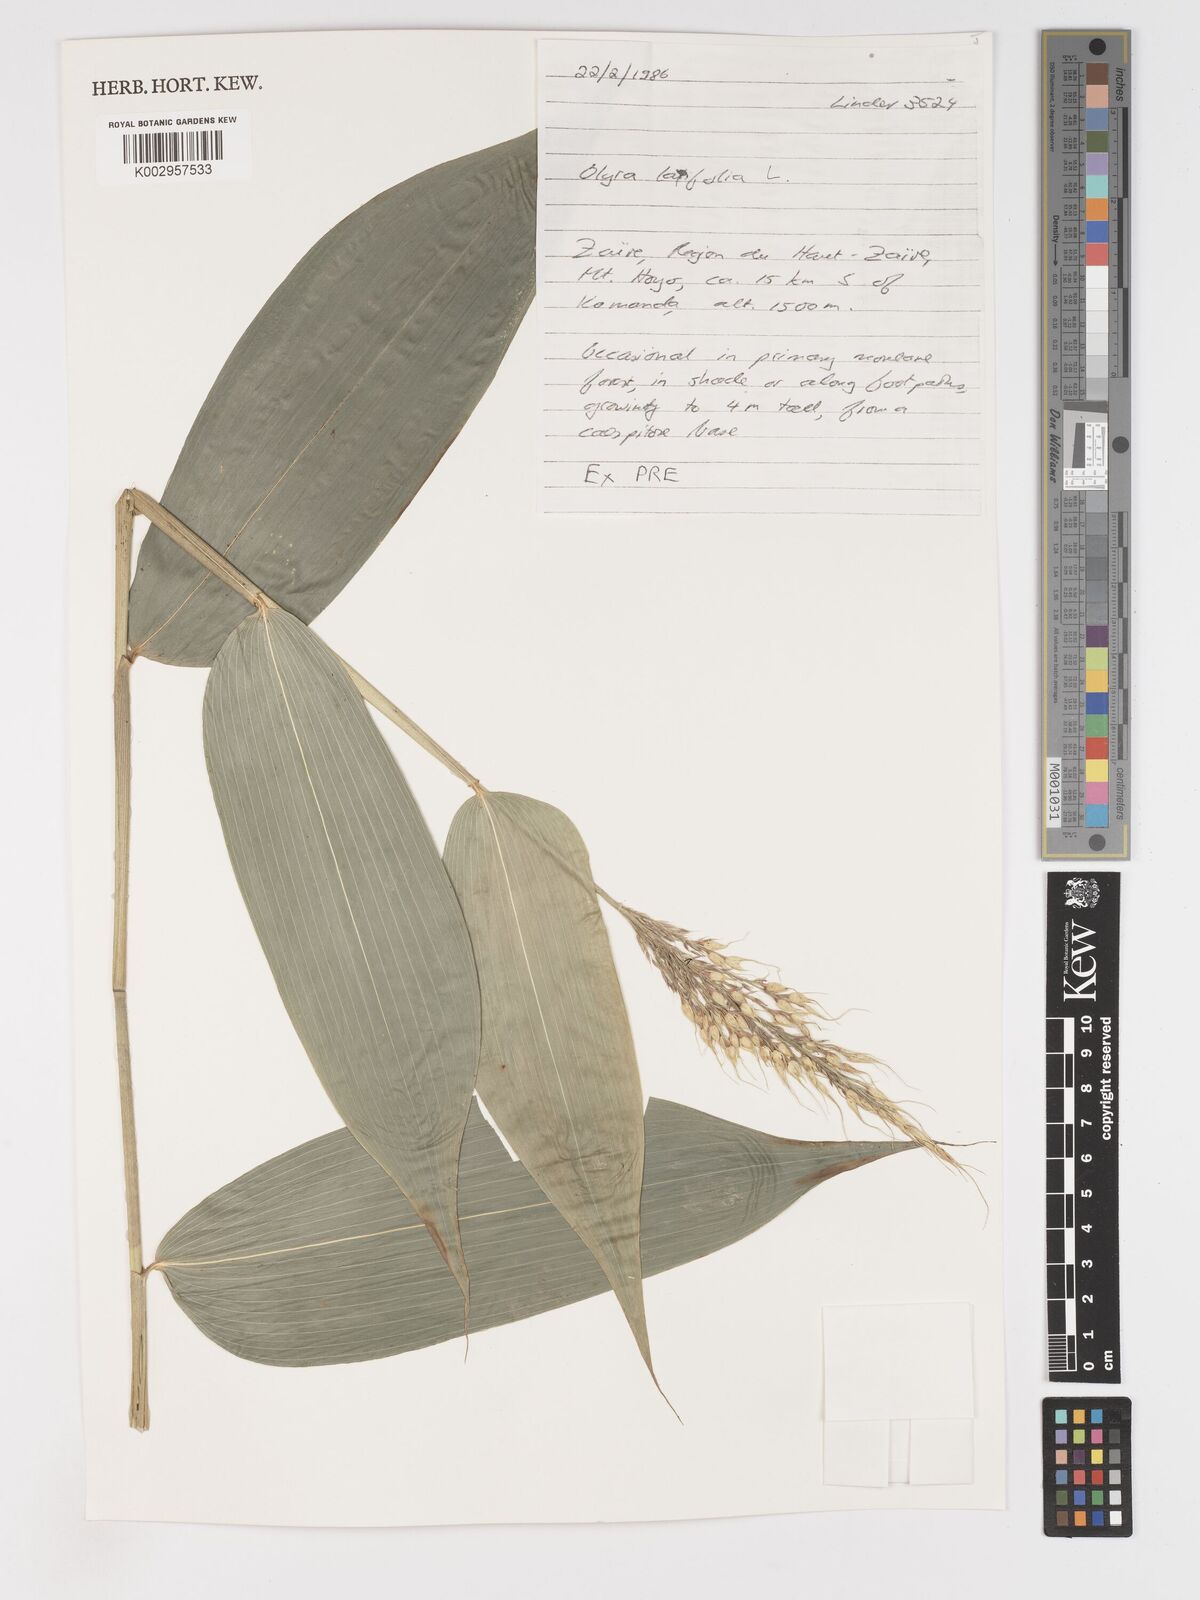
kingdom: Plantae
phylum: Tracheophyta
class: Liliopsida
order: Poales
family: Poaceae
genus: Olyra
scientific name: Olyra latifolia
